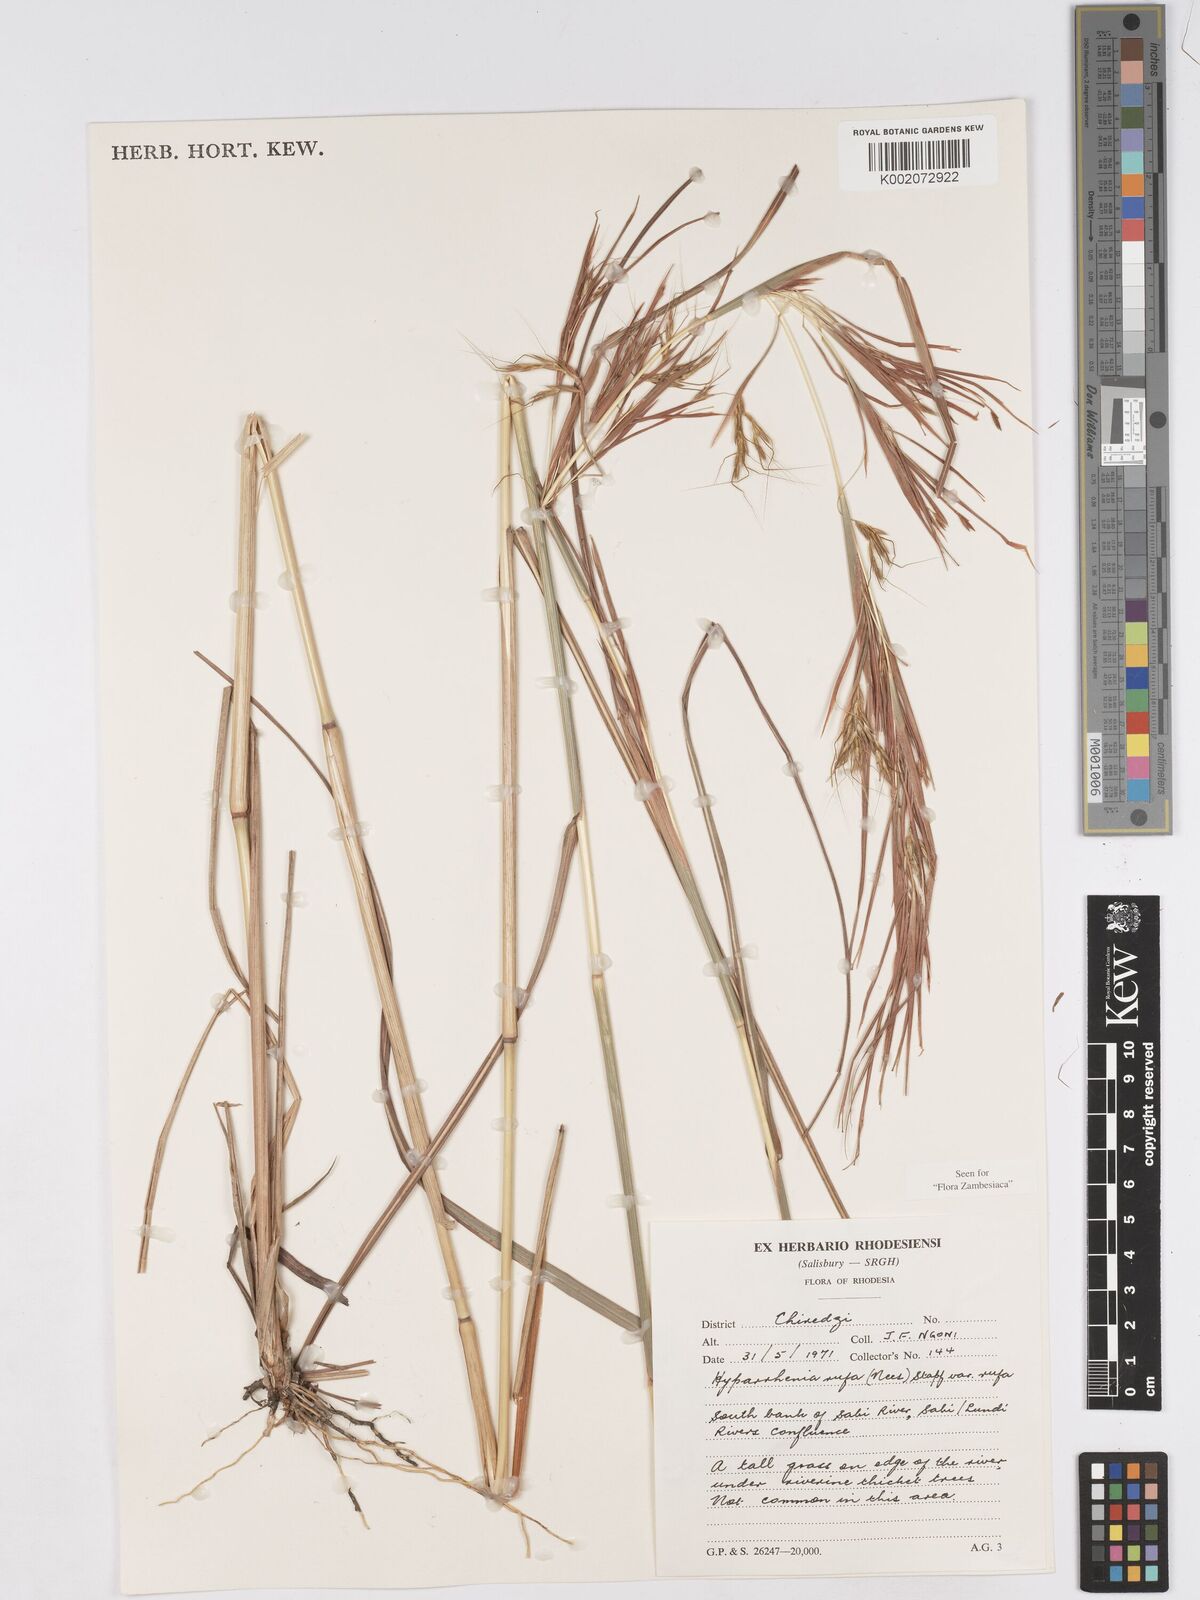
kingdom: Plantae
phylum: Tracheophyta
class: Liliopsida
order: Poales
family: Poaceae
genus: Hyparrhenia
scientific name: Hyparrhenia rufa
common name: Jaraguagrass
